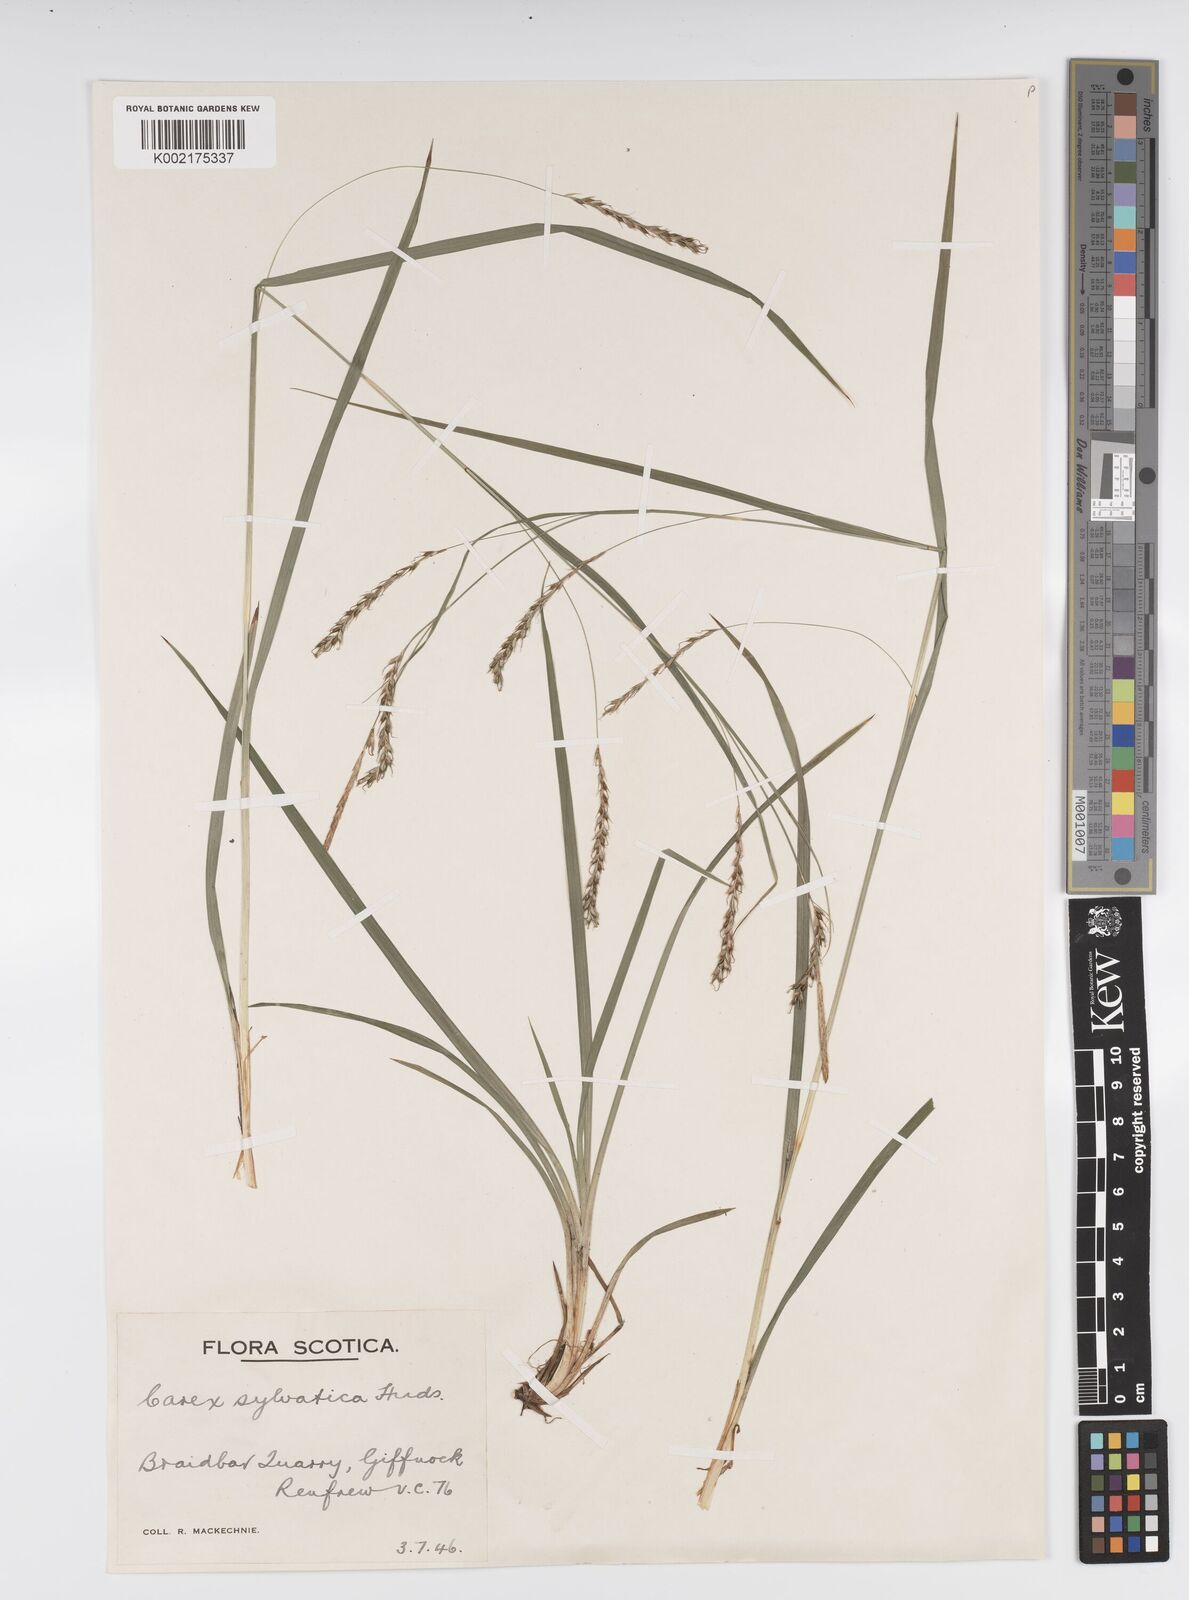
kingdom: Plantae
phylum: Tracheophyta
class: Liliopsida
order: Poales
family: Cyperaceae
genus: Carex
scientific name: Carex sylvatica
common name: Wood-sedge
